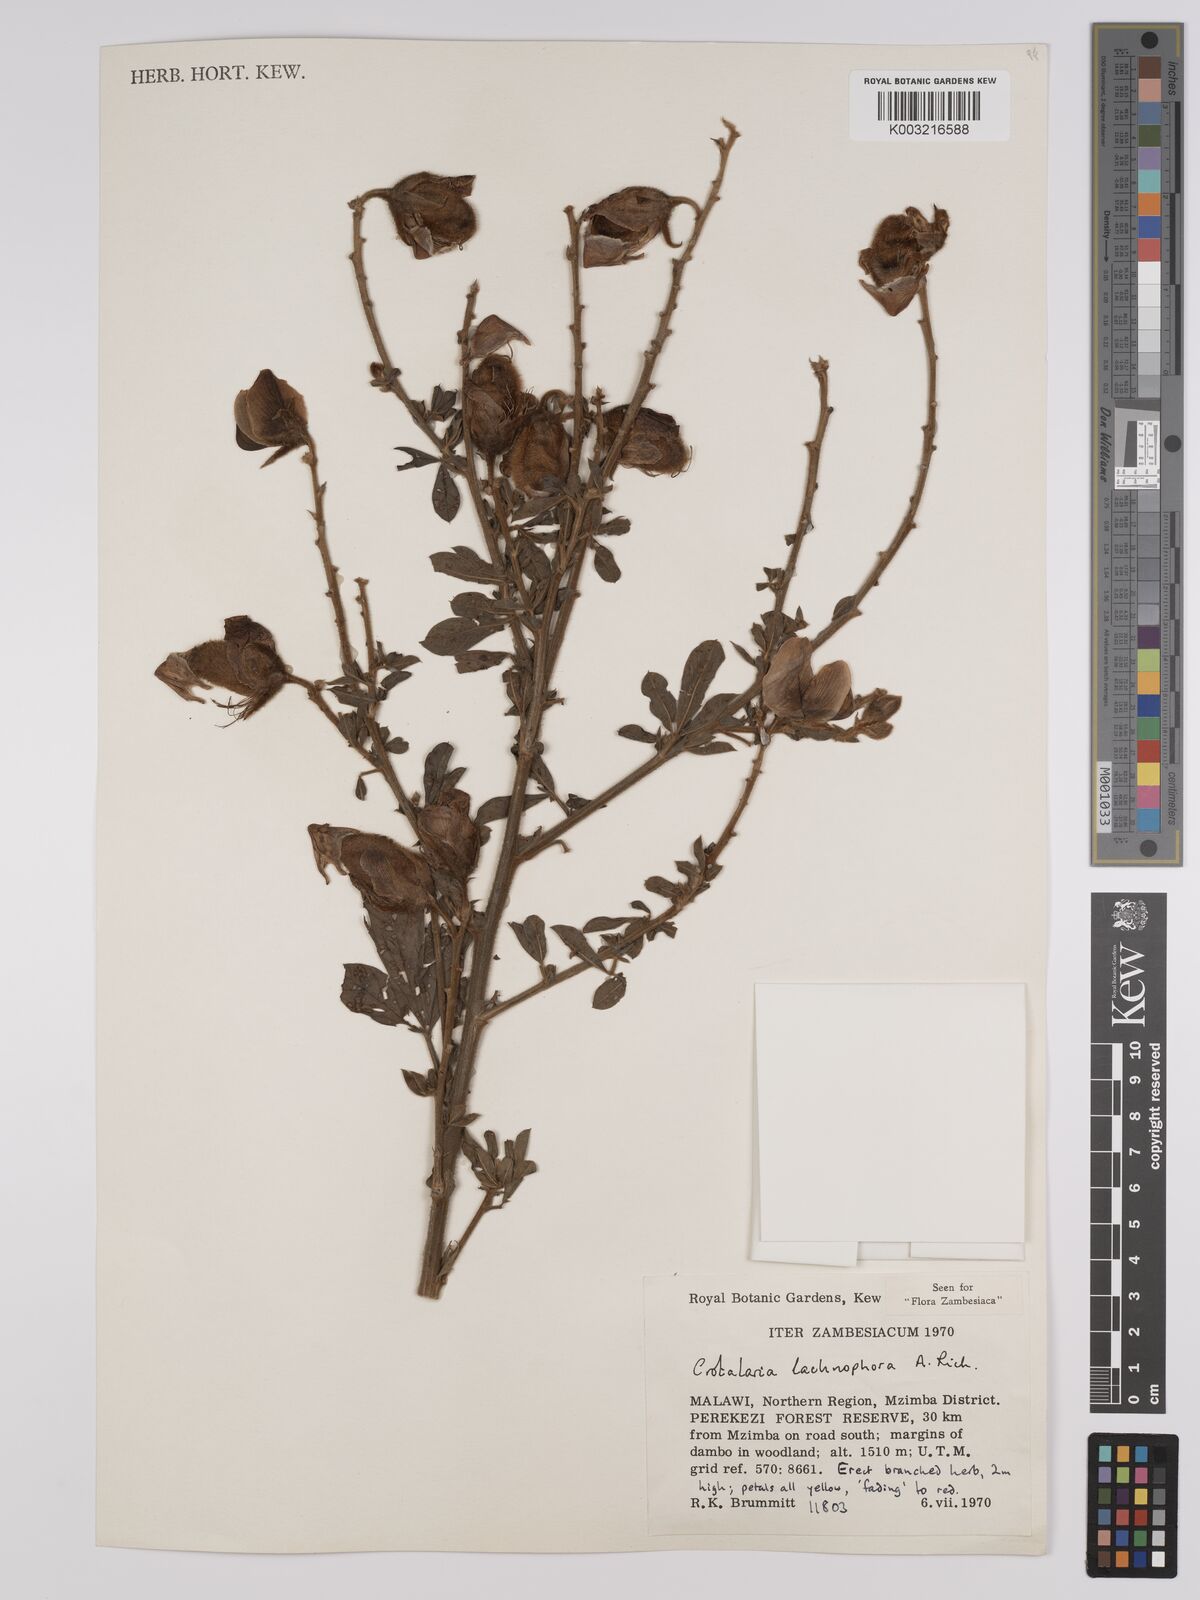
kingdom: Plantae
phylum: Tracheophyta
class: Magnoliopsida
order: Fabales
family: Fabaceae
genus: Crotalaria
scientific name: Crotalaria lachnophora
